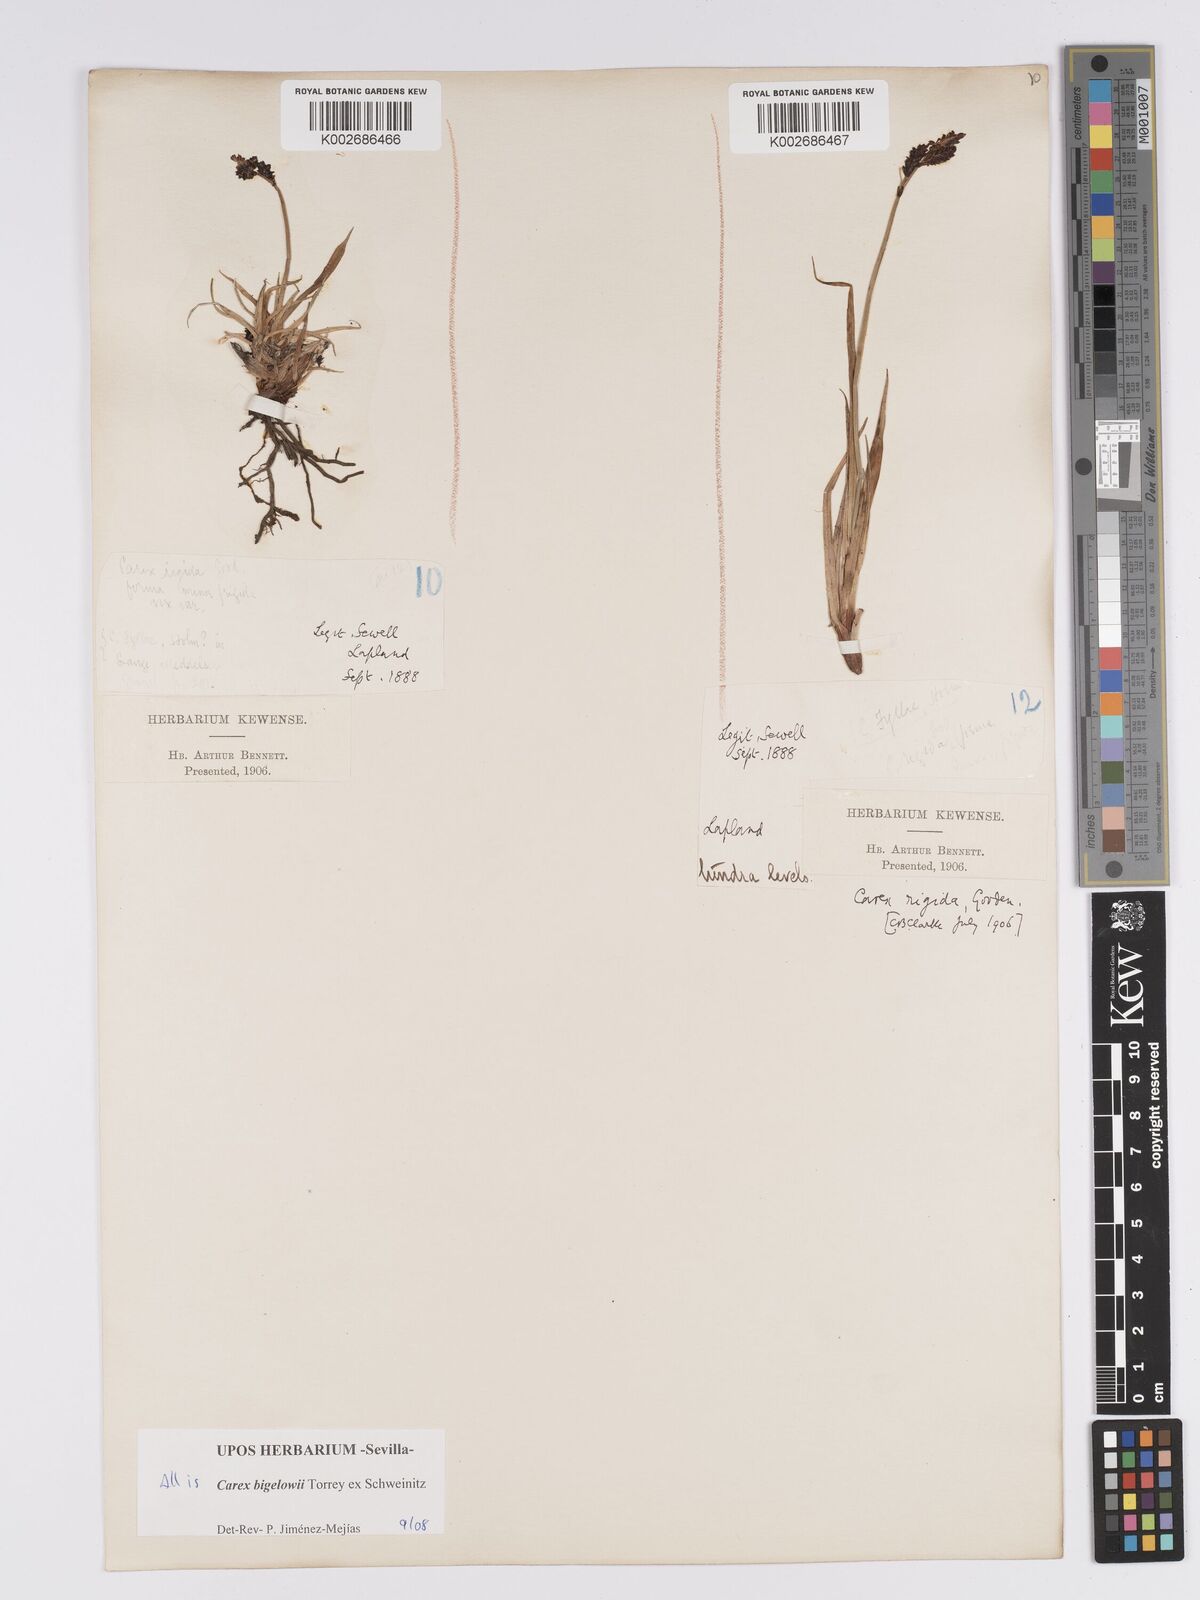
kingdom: Plantae
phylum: Tracheophyta
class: Liliopsida
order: Poales
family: Cyperaceae
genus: Carex
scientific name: Carex bigelowii
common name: Stiff sedge
